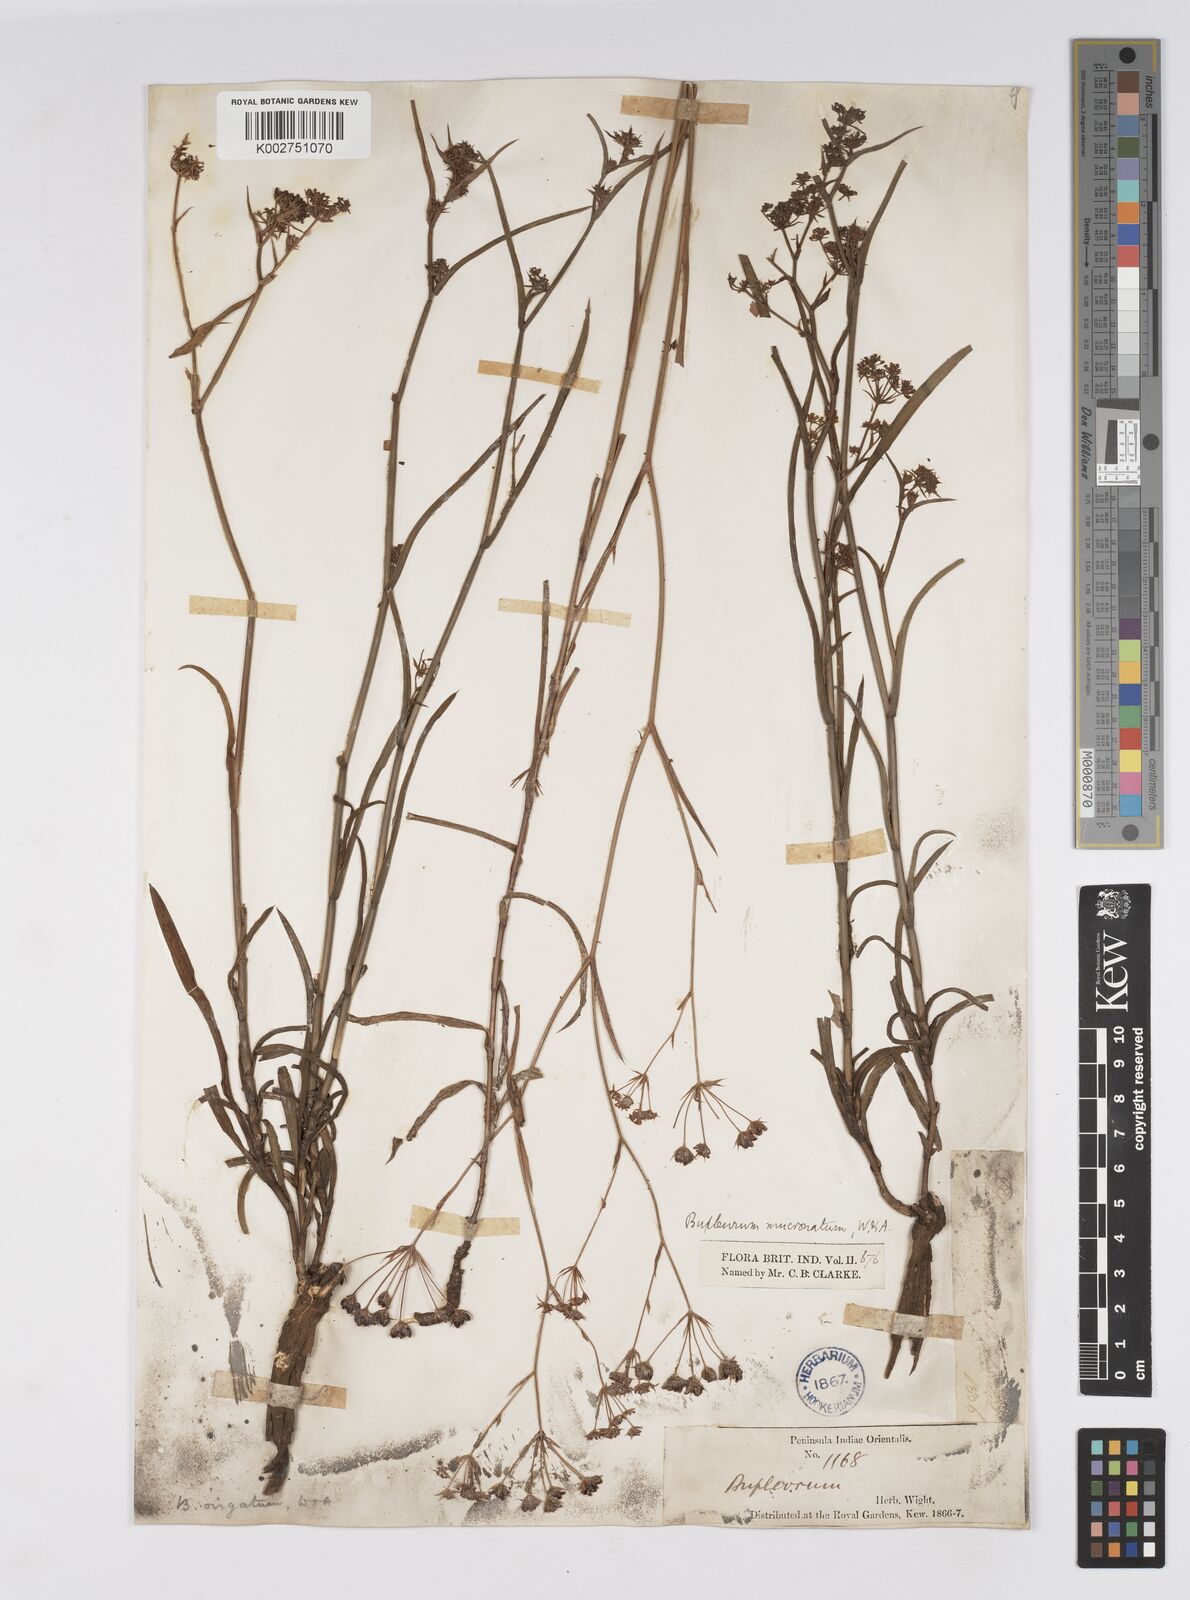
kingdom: Plantae
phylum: Tracheophyta
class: Magnoliopsida
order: Apiales
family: Apiaceae
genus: Bupleurum
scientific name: Bupleurum
